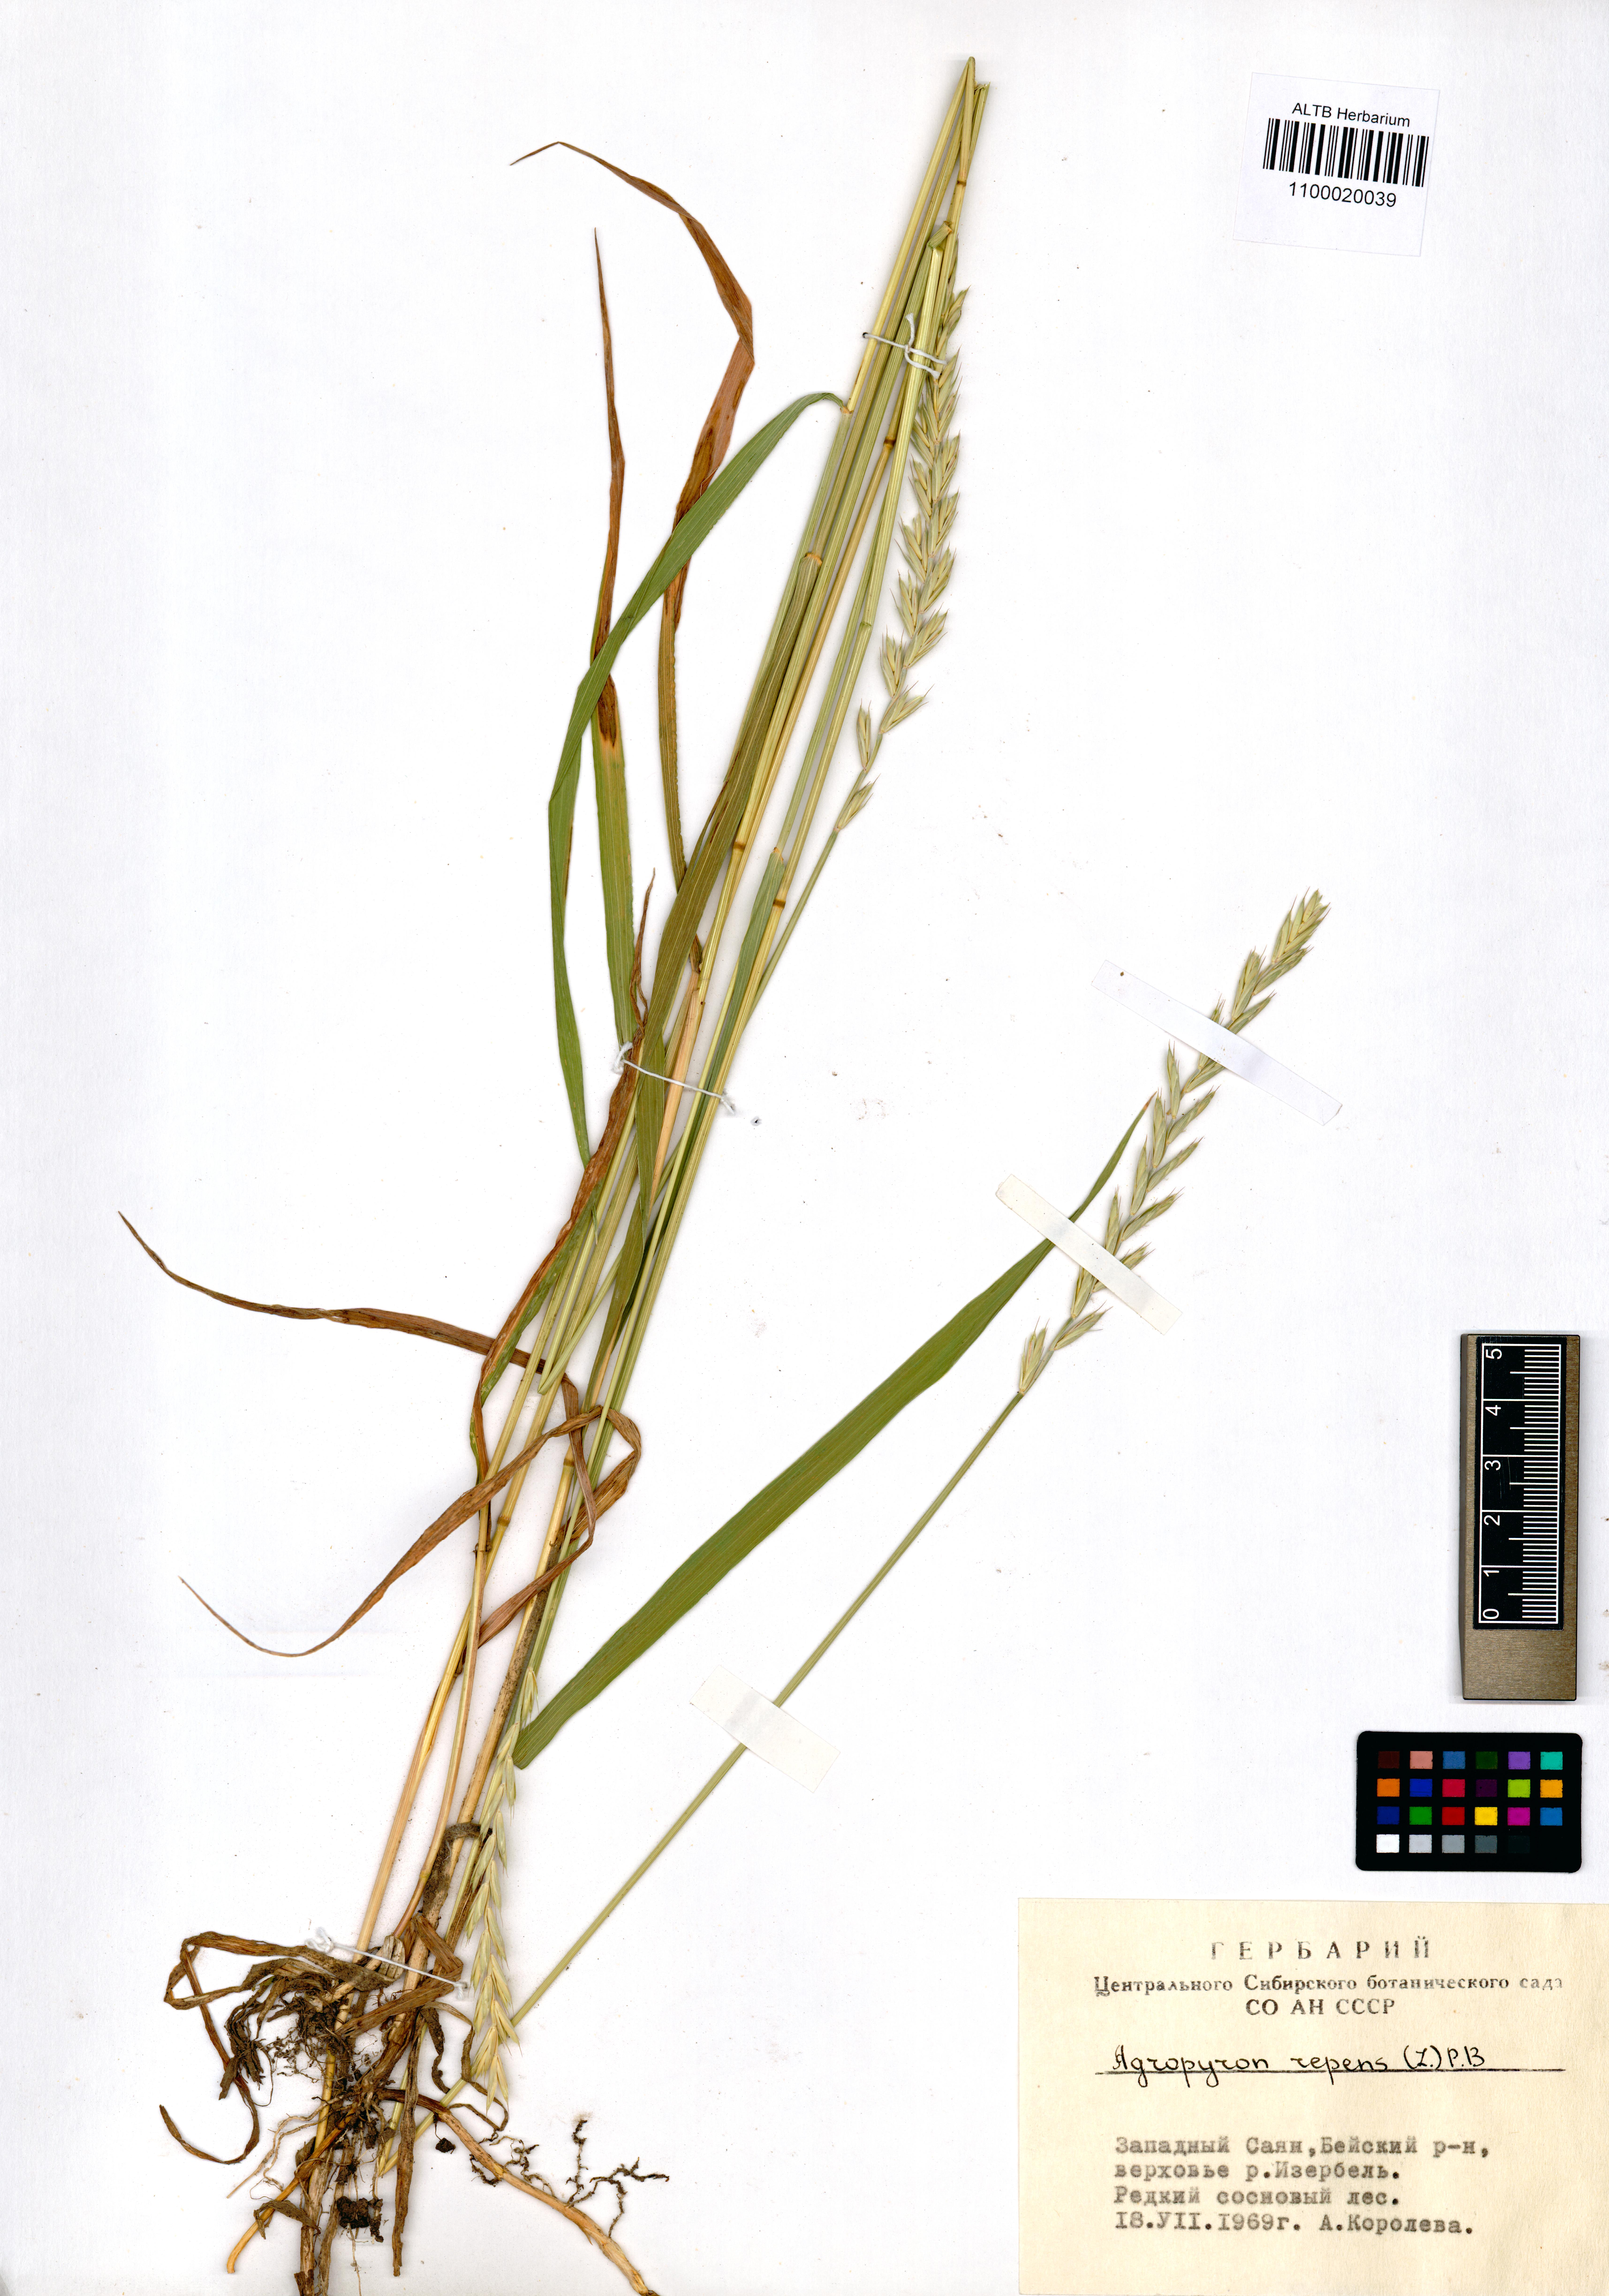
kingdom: Plantae
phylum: Tracheophyta
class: Liliopsida
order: Poales
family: Poaceae
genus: Elymus
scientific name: Elymus repens
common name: Quackgrass
